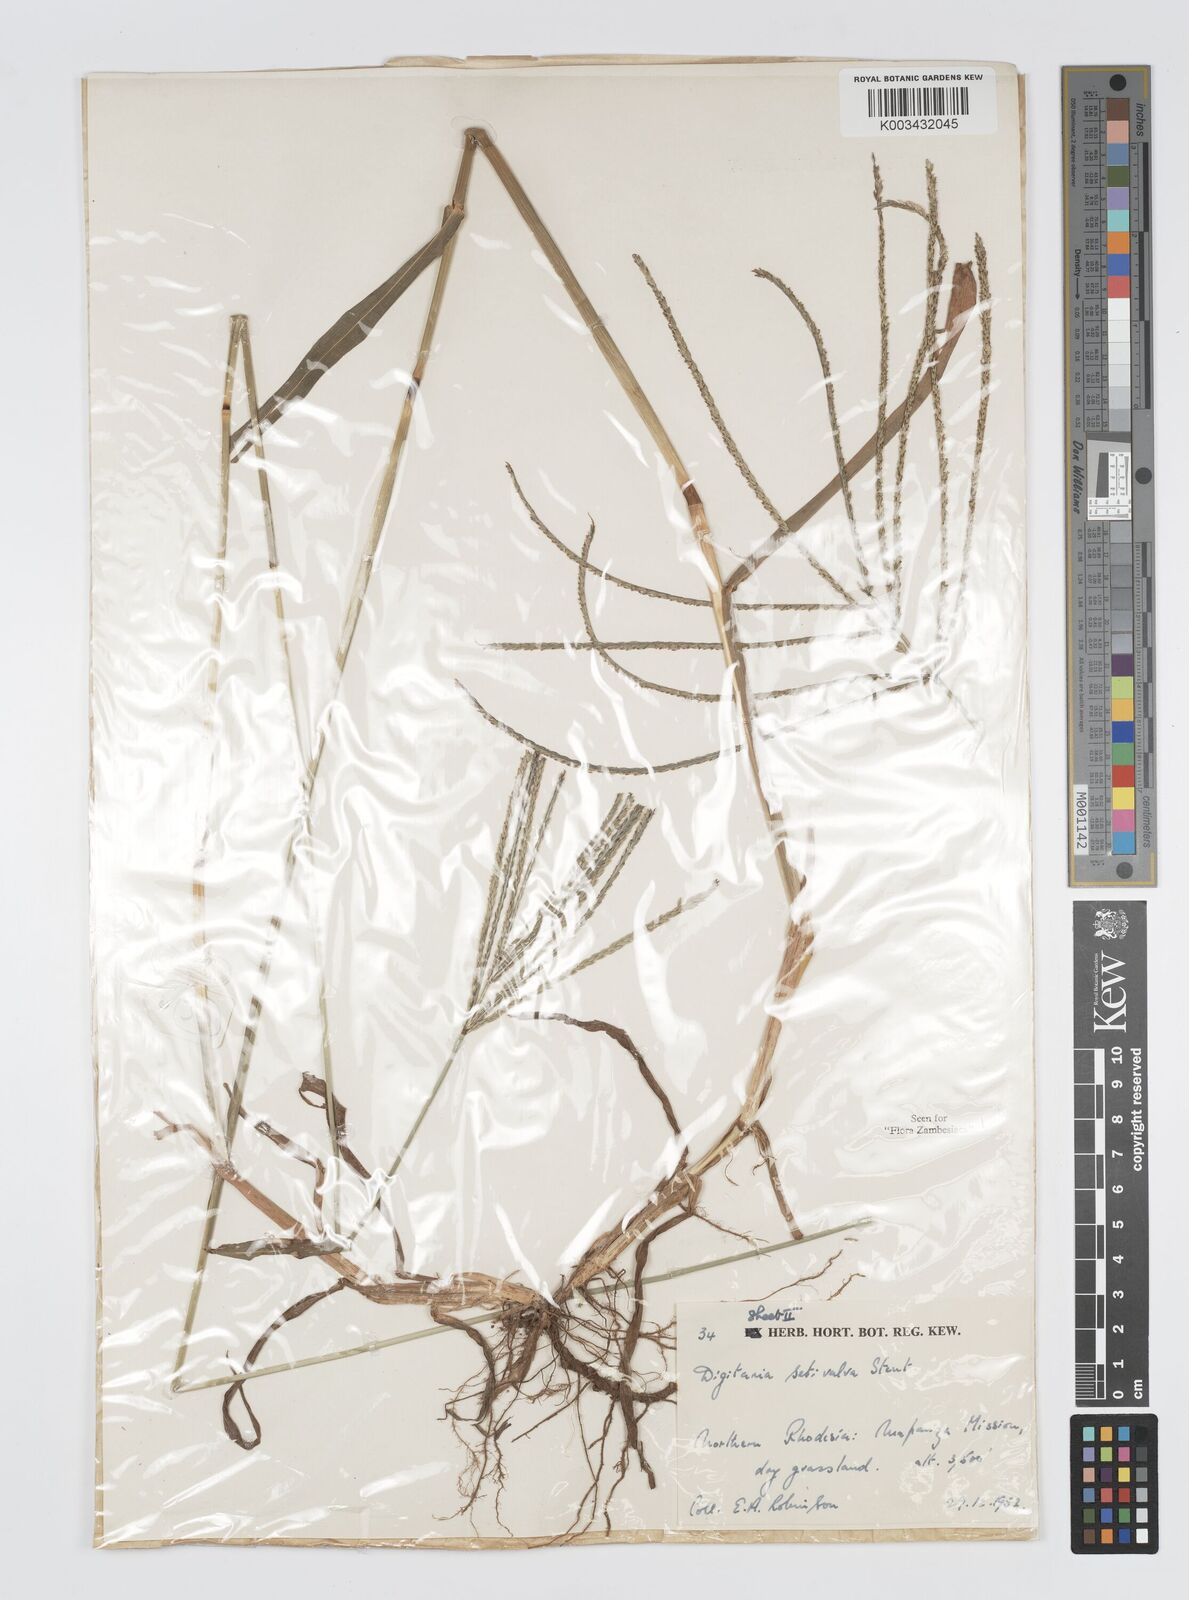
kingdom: Plantae
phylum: Tracheophyta
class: Liliopsida
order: Poales
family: Poaceae
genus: Digitaria
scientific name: Digitaria milanjiana
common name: Madagascar crabgrass
